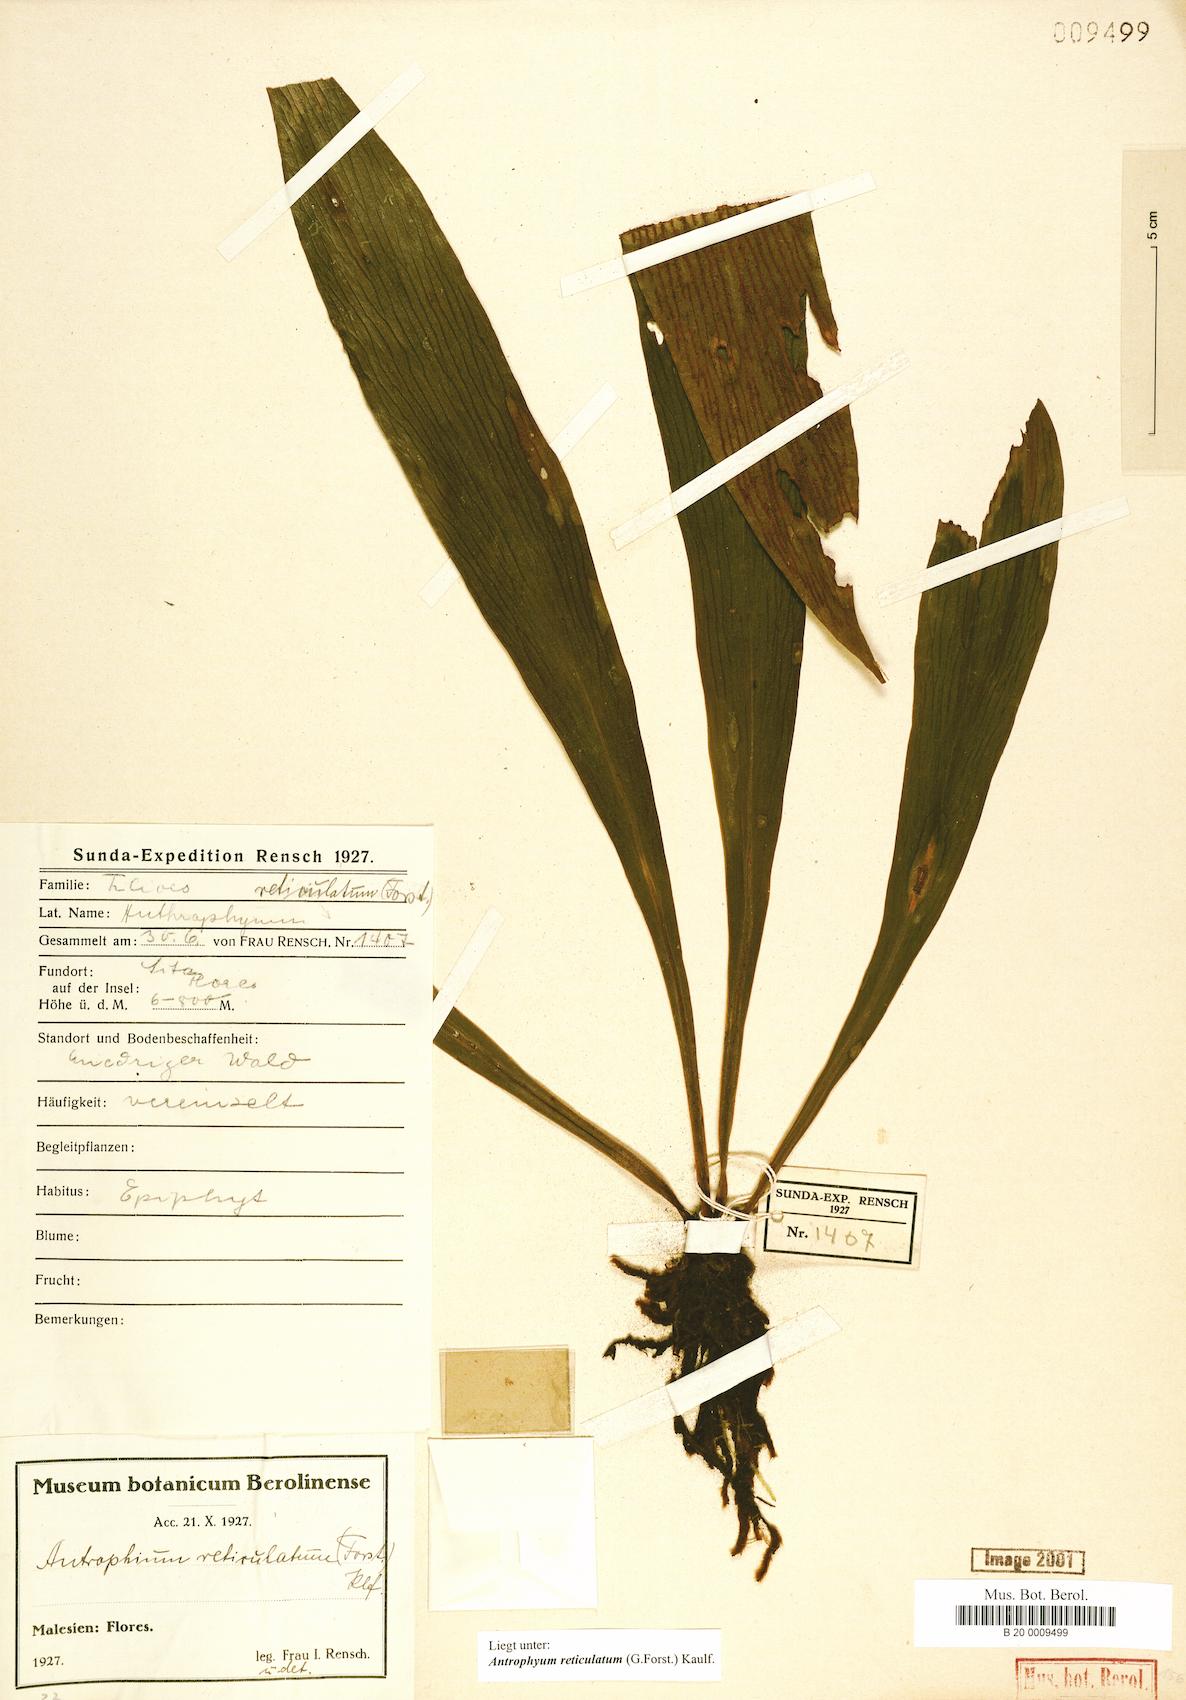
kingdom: Plantae
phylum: Tracheophyta
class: Polypodiopsida
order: Polypodiales
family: Pteridaceae
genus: Antrophyum
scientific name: Antrophyum reticulatum
